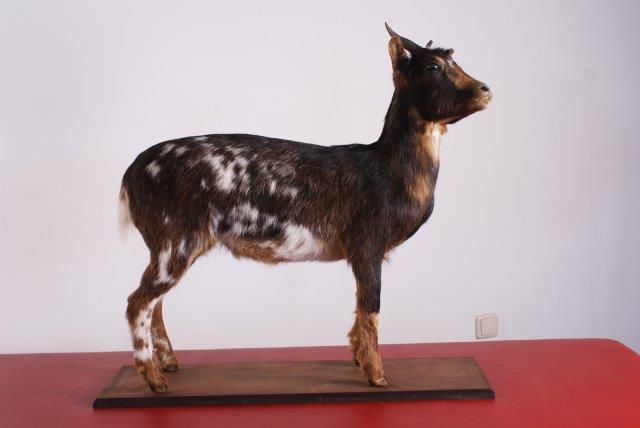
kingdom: Animalia
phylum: Chordata
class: Mammalia
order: Artiodactyla
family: Bovidae
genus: Capra
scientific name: Capra hircus
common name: Goat
